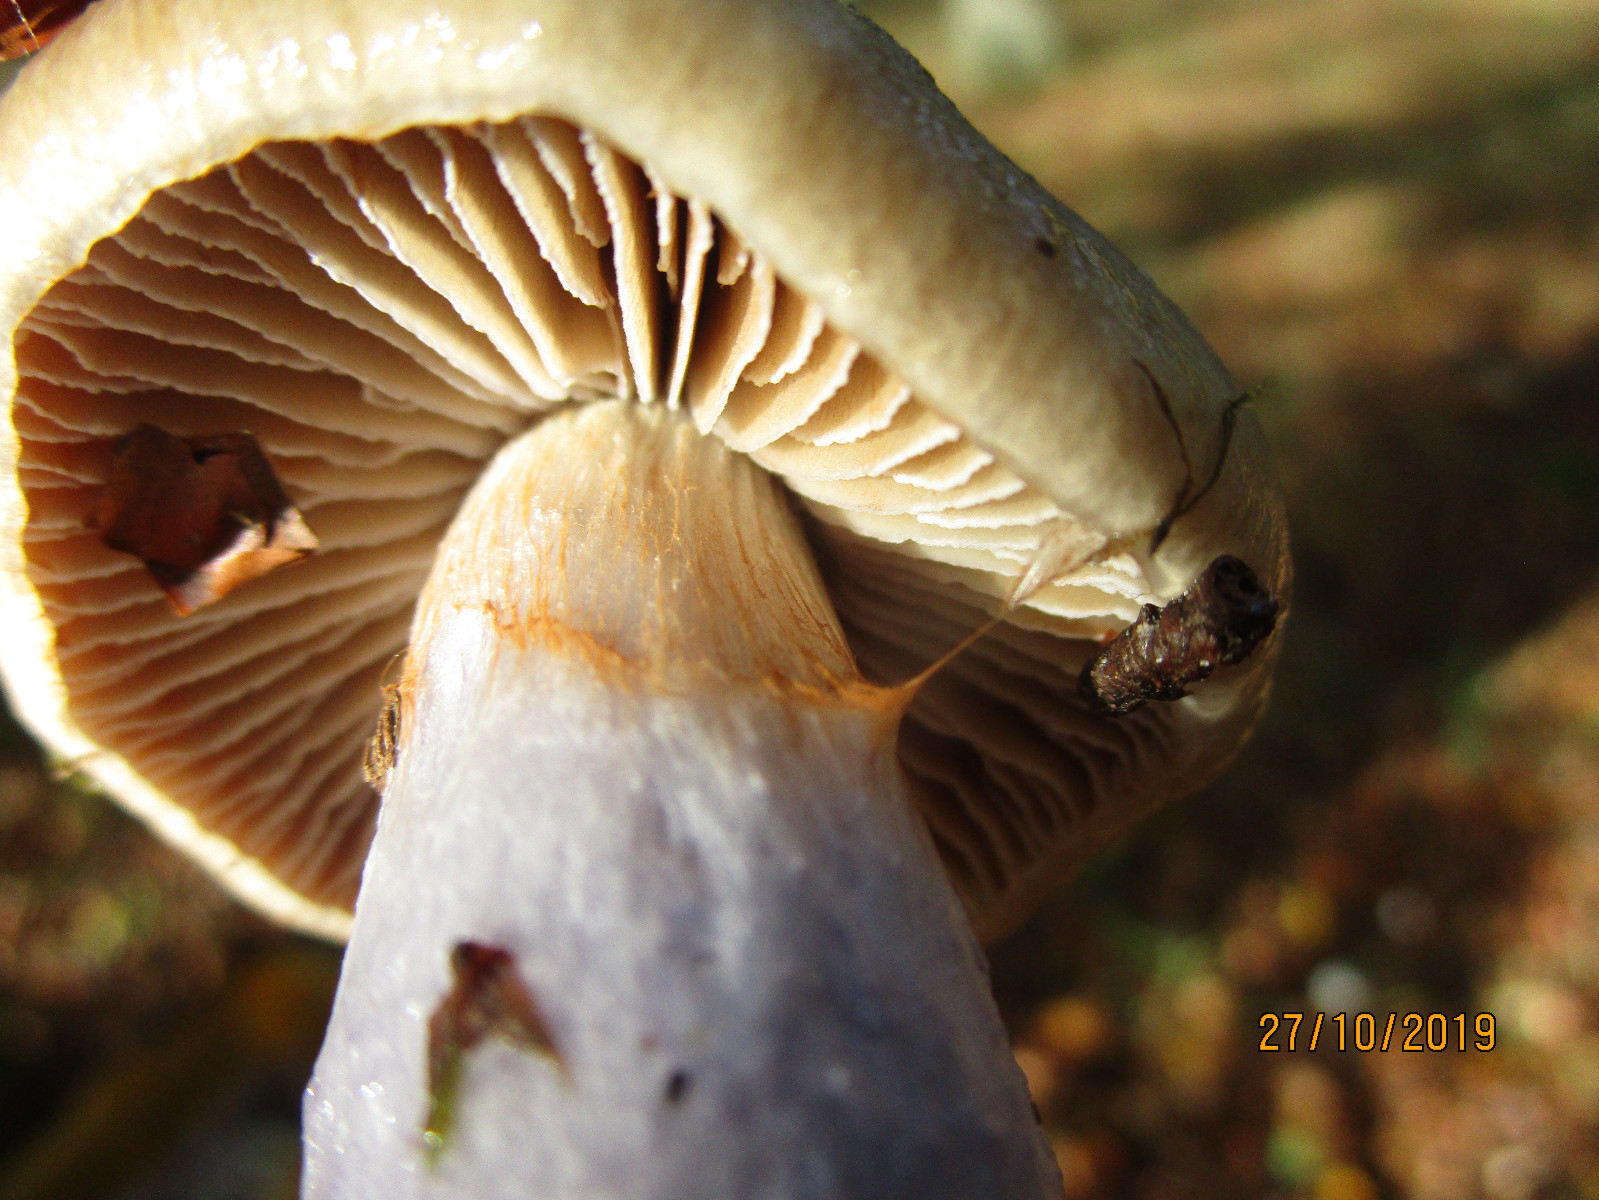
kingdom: Fungi
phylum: Basidiomycota
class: Agaricomycetes
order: Agaricales
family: Cortinariaceae
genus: Cortinarius
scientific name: Cortinarius
